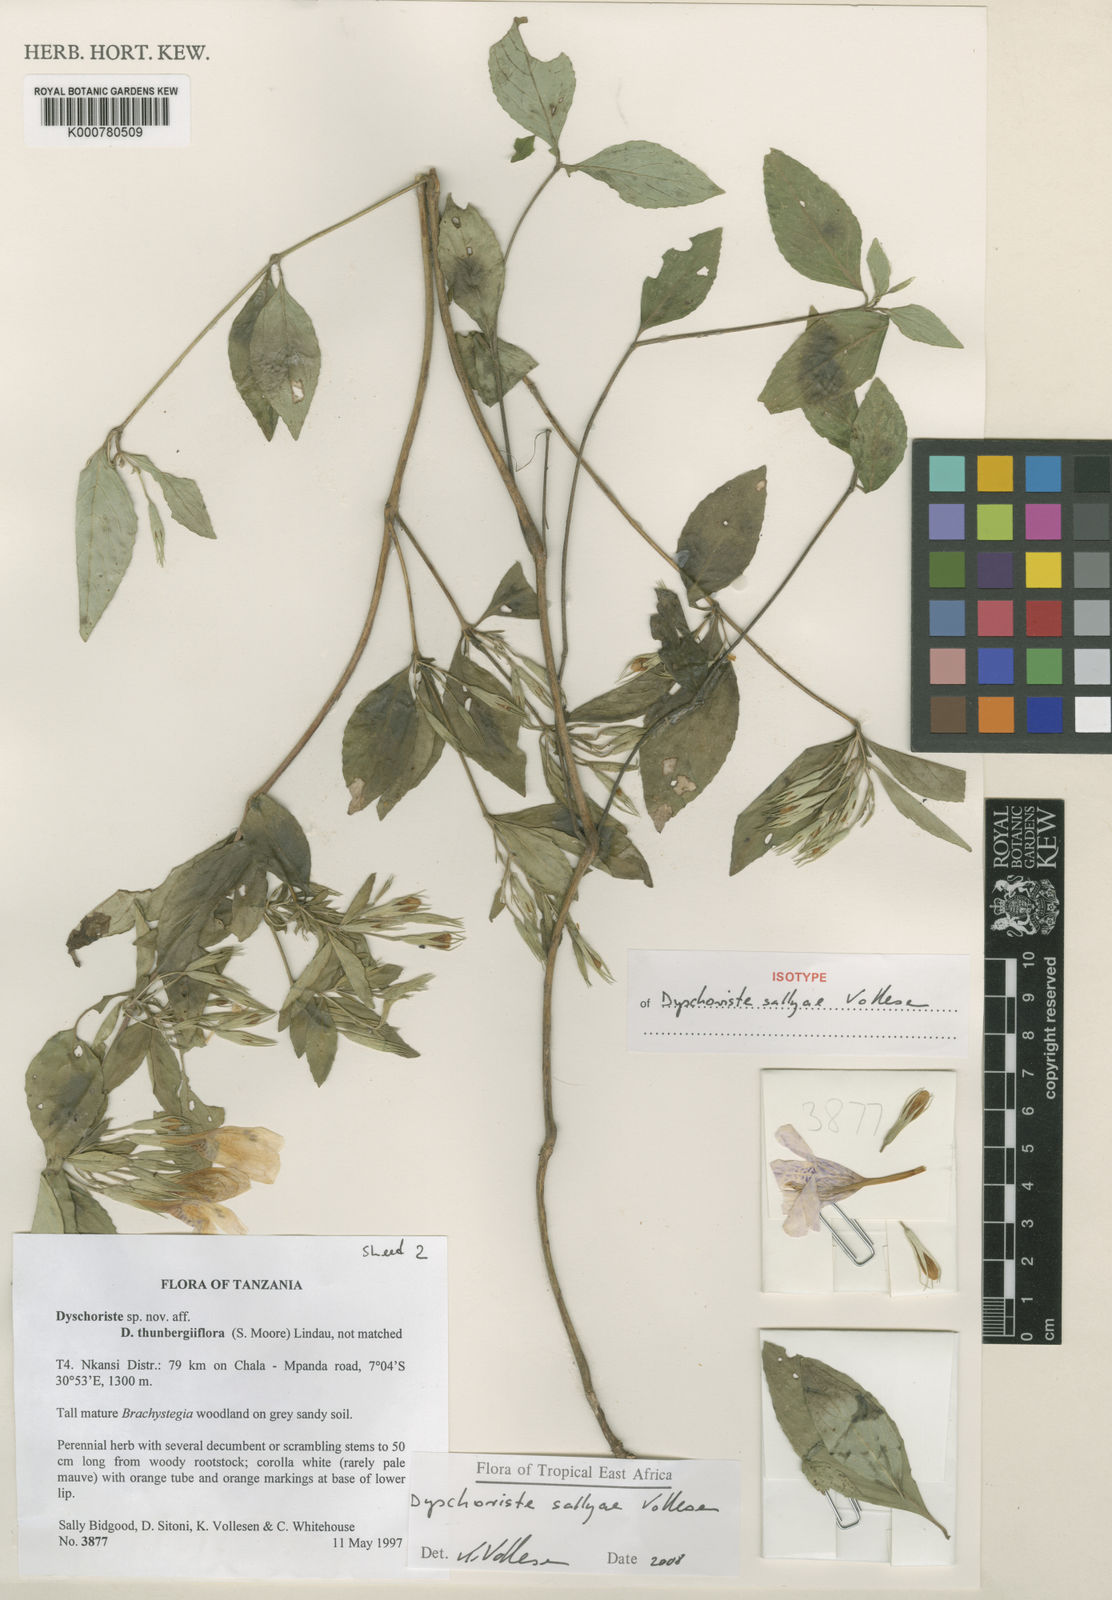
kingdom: Plantae
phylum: Tracheophyta
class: Magnoliopsida
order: Lamiales
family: Acanthaceae
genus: Dyschoriste
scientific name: Dyschoriste sallyae
